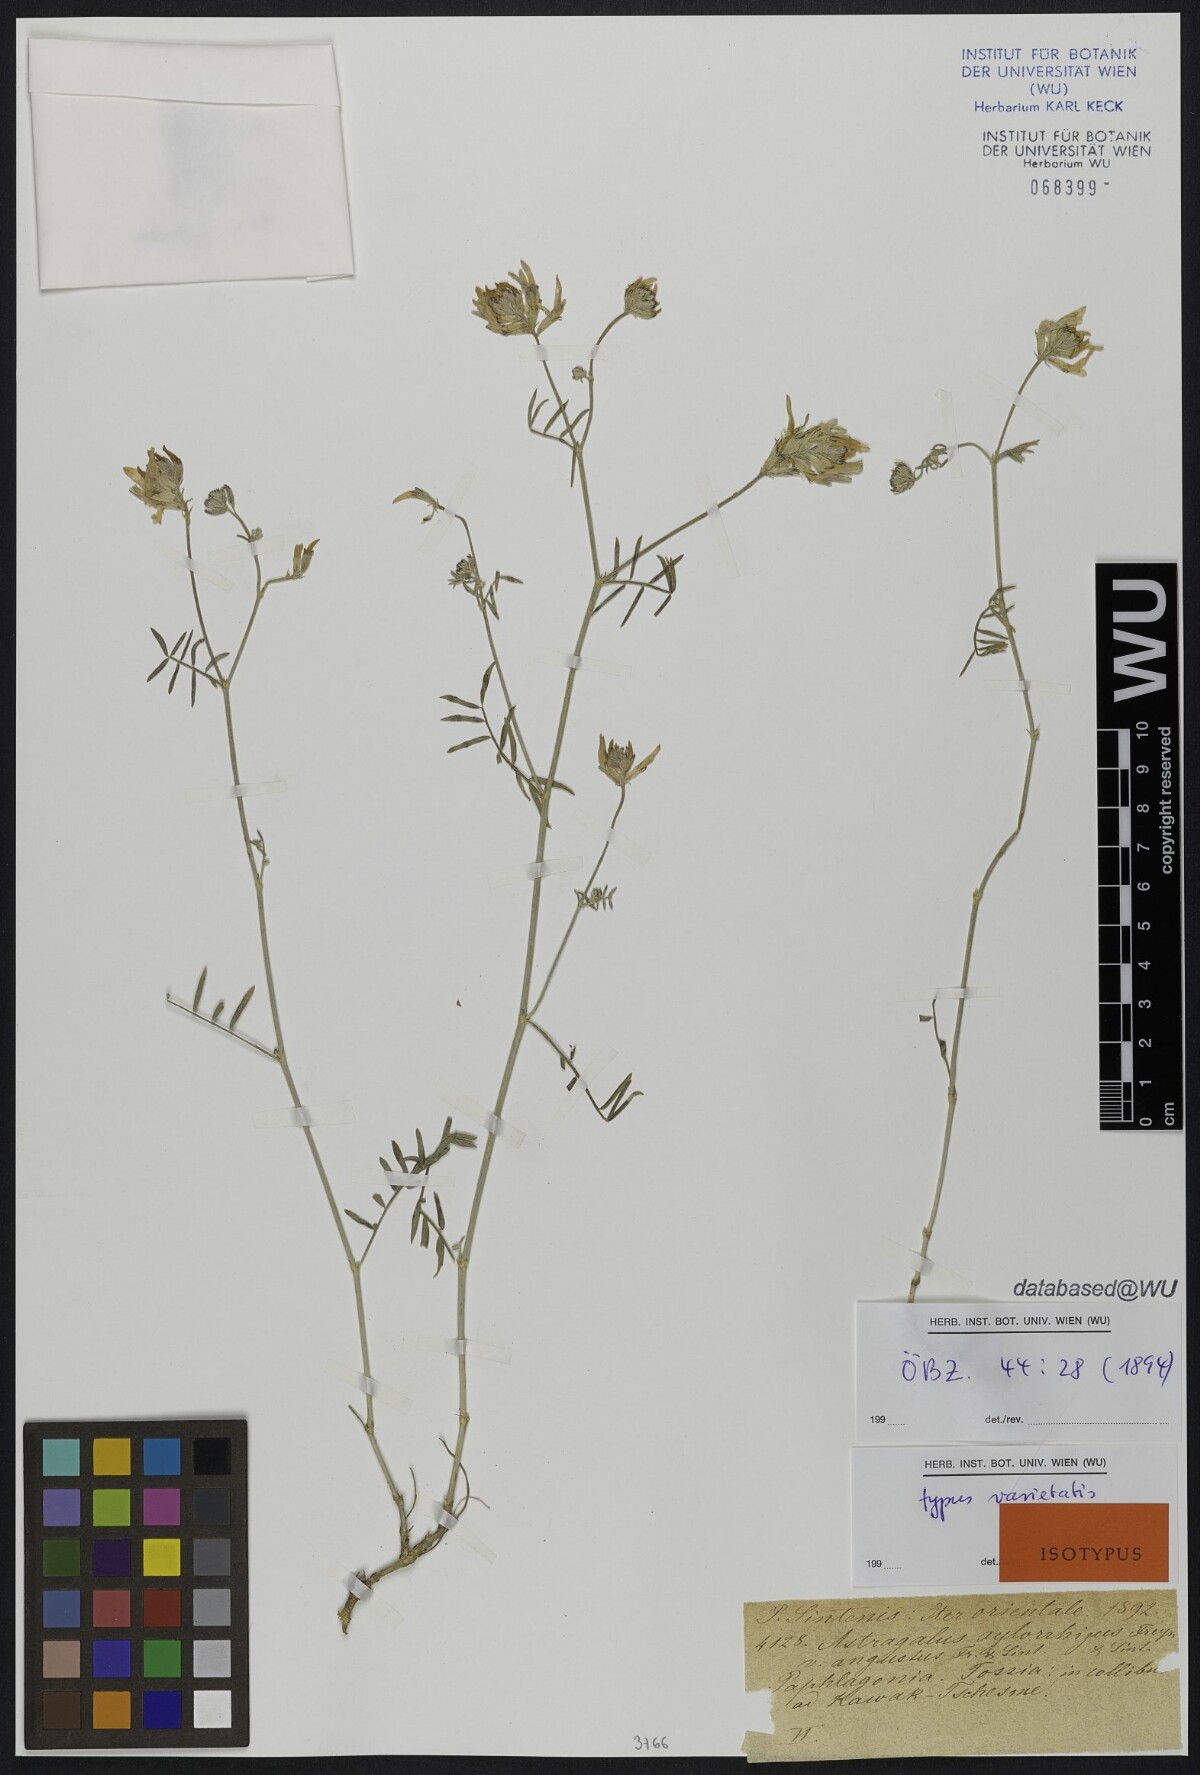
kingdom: Plantae
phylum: Tracheophyta
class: Magnoliopsida
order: Fabales
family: Fabaceae
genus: Astragalus
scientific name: Astragalus aduncus
